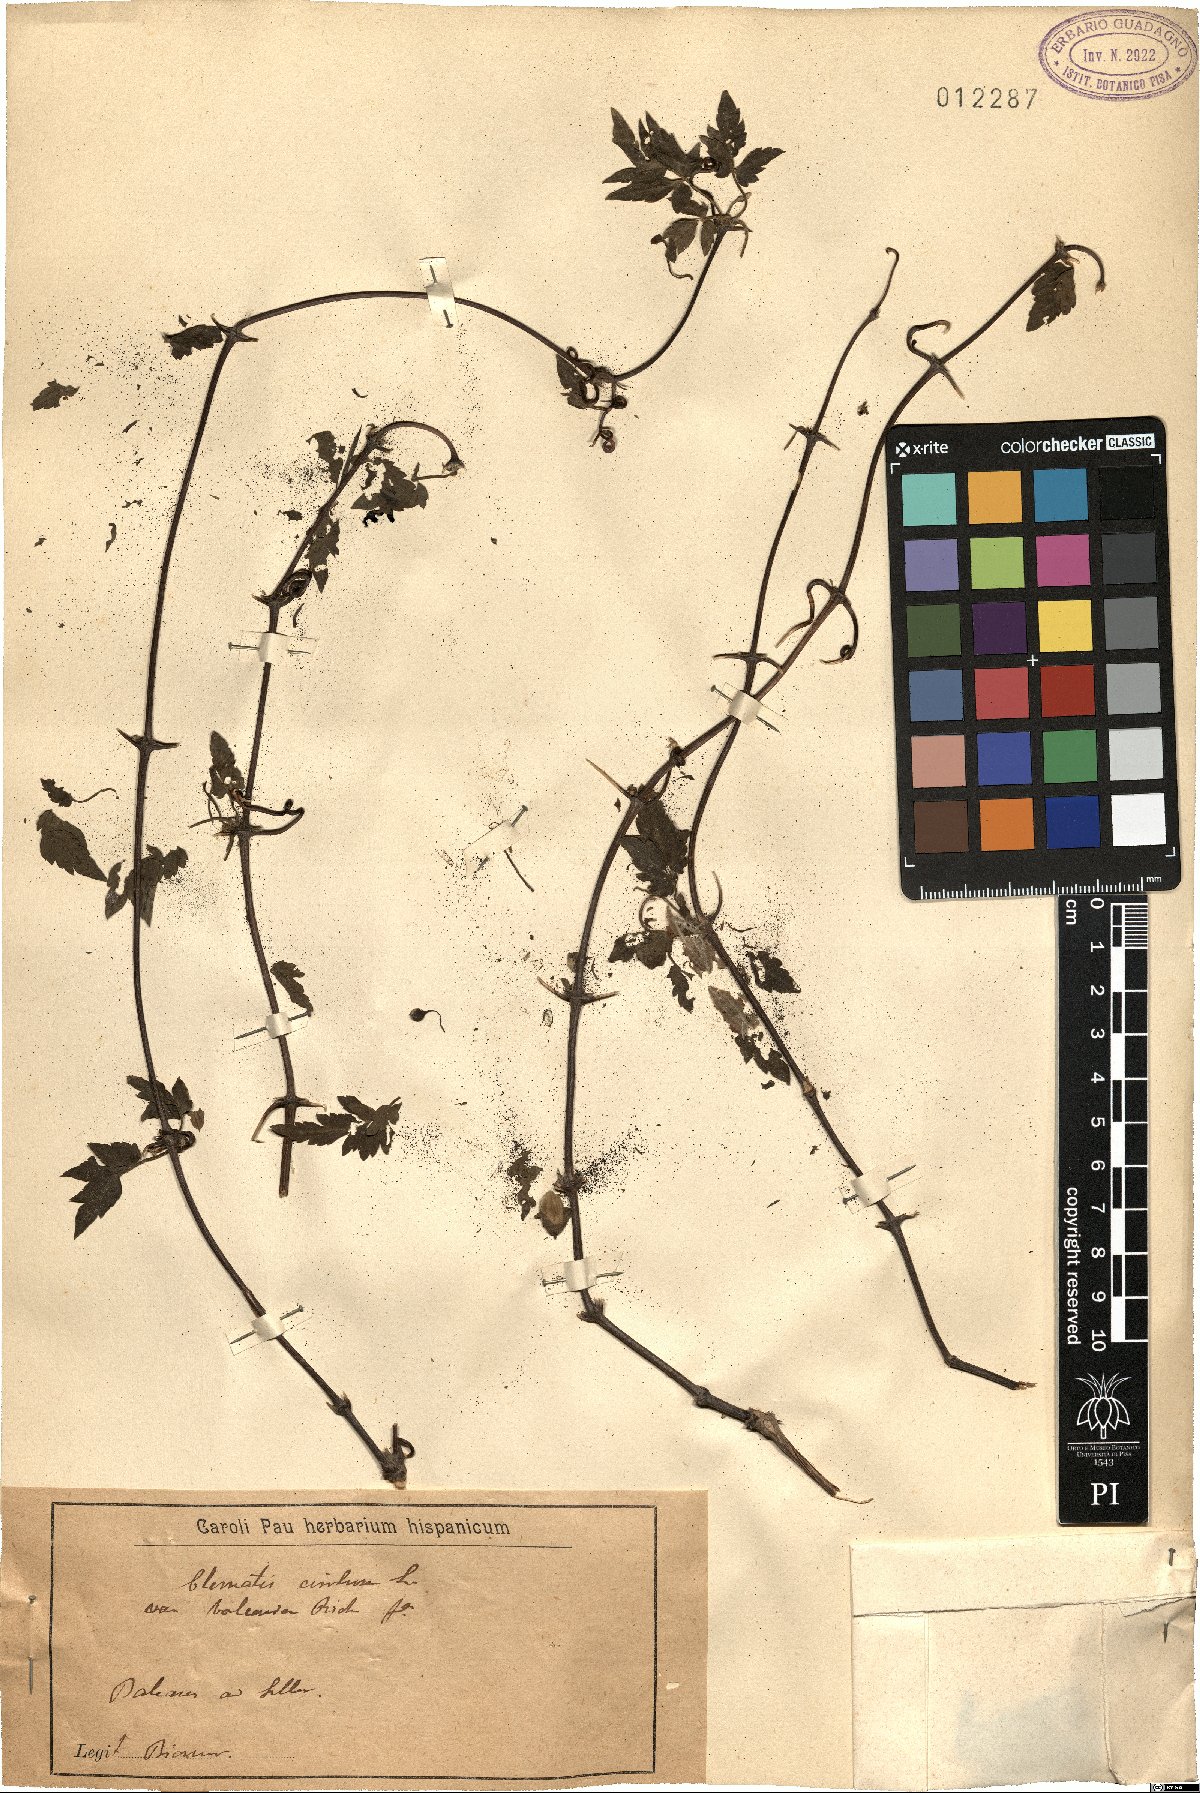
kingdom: Plantae
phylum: Tracheophyta
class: Magnoliopsida
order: Ranunculales
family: Ranunculaceae
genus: Clematis
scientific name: Clematis cirrhosa
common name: Early virgin's-bower
